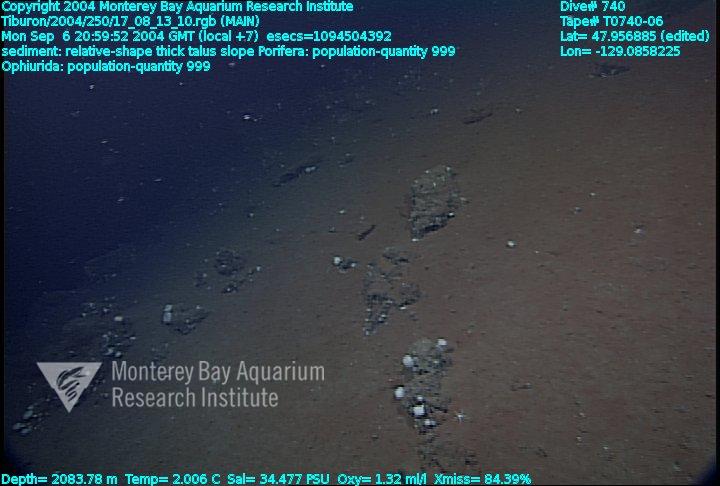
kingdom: Animalia
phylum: Porifera
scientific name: Porifera
